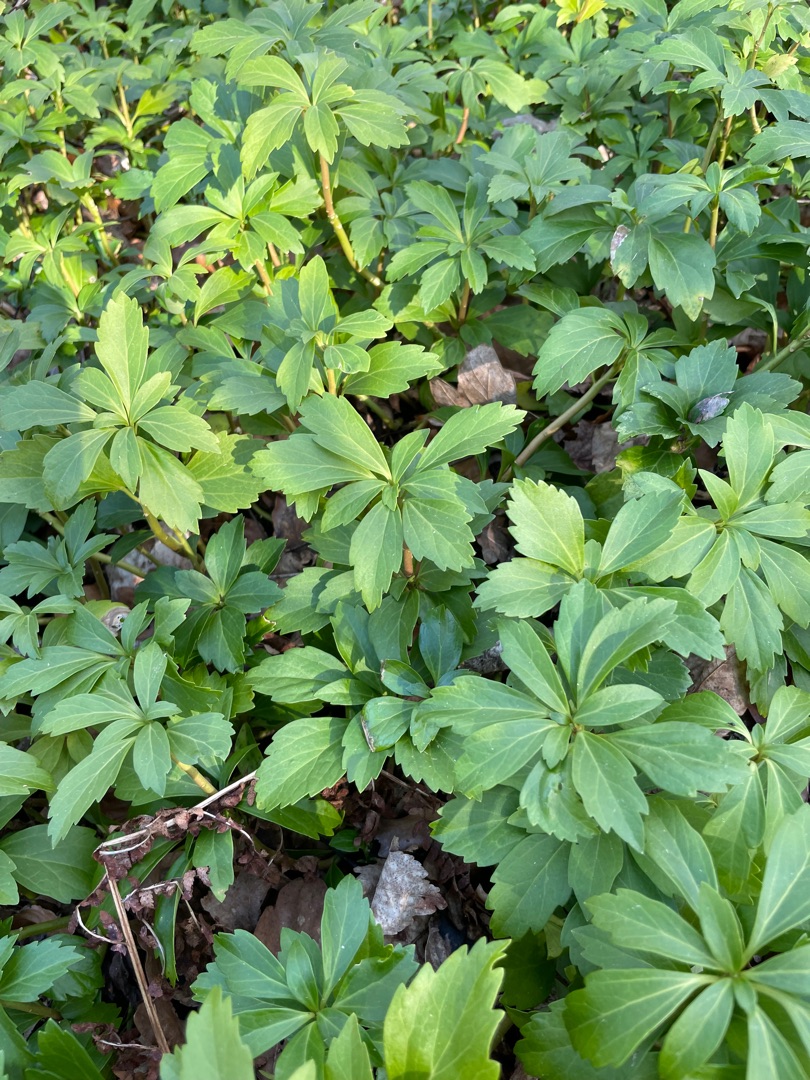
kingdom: Plantae
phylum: Tracheophyta
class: Magnoliopsida
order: Buxales
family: Buxaceae
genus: Pachysandra
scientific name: Pachysandra terminalis
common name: Vinterglans
